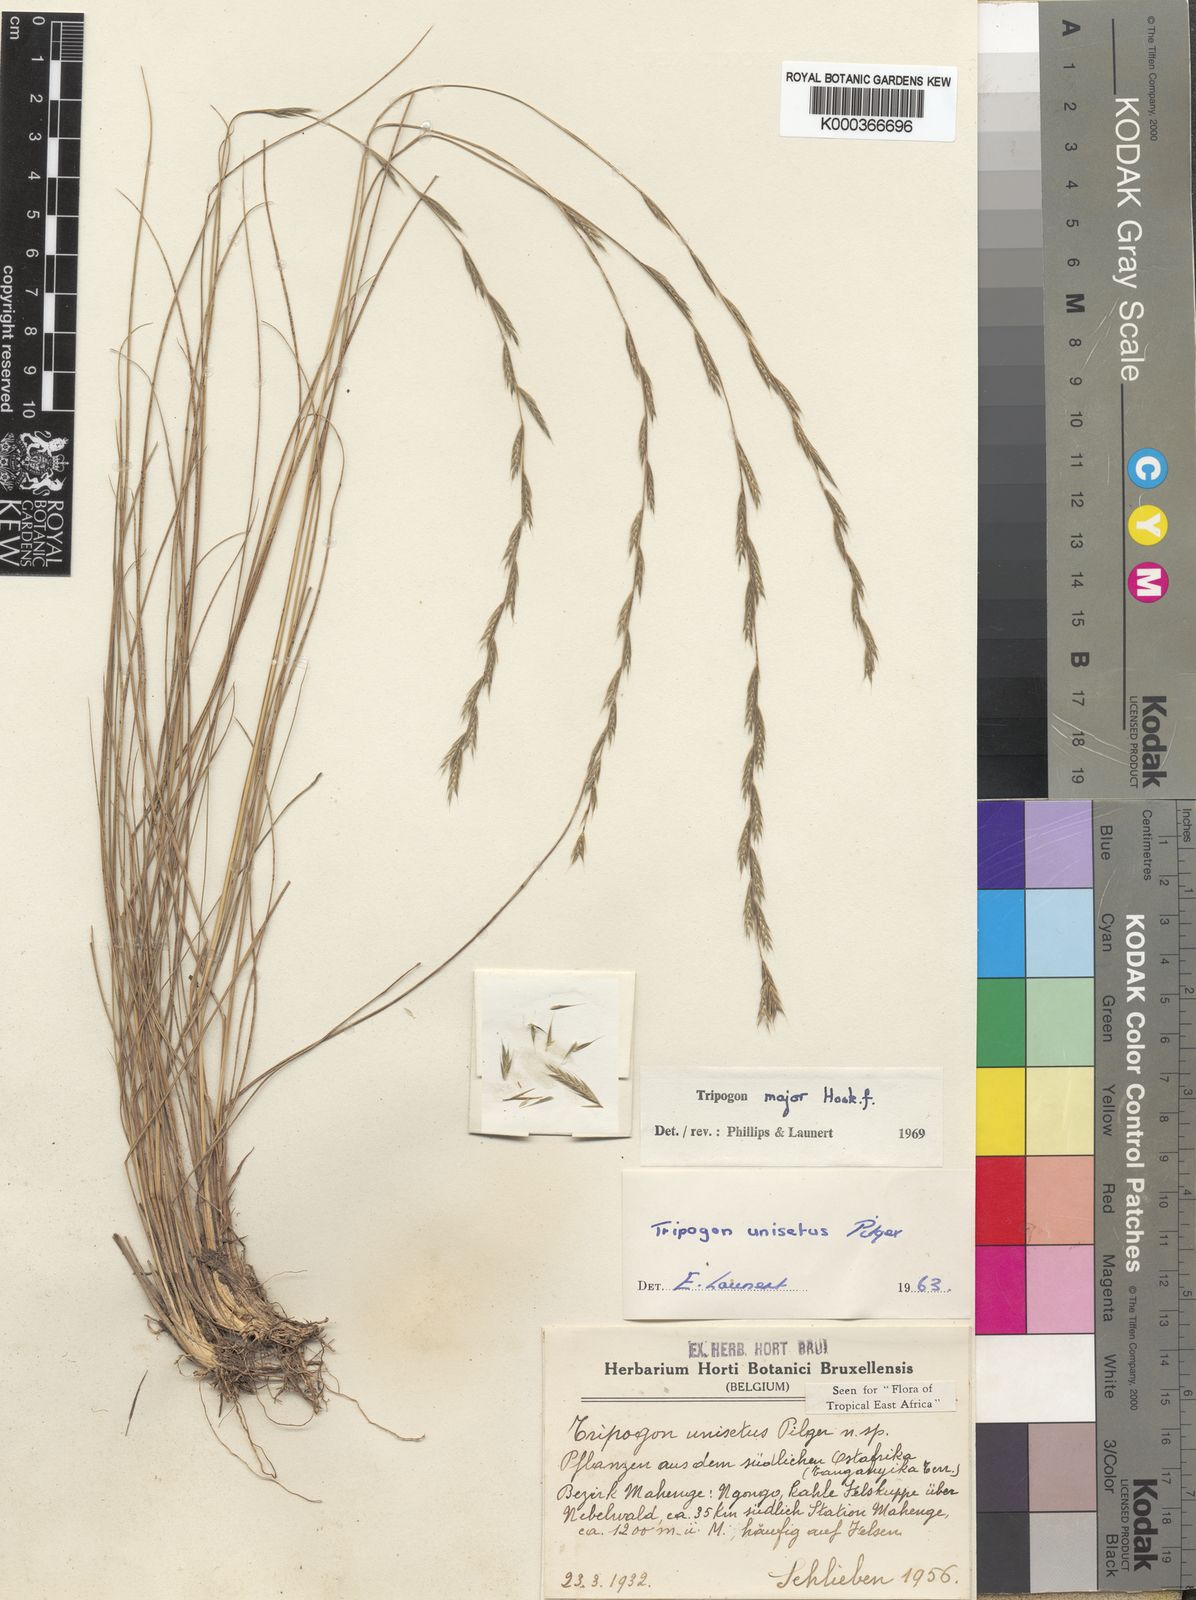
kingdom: Plantae
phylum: Tracheophyta
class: Liliopsida
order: Poales
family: Poaceae
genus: Tripogon
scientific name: Tripogon major
